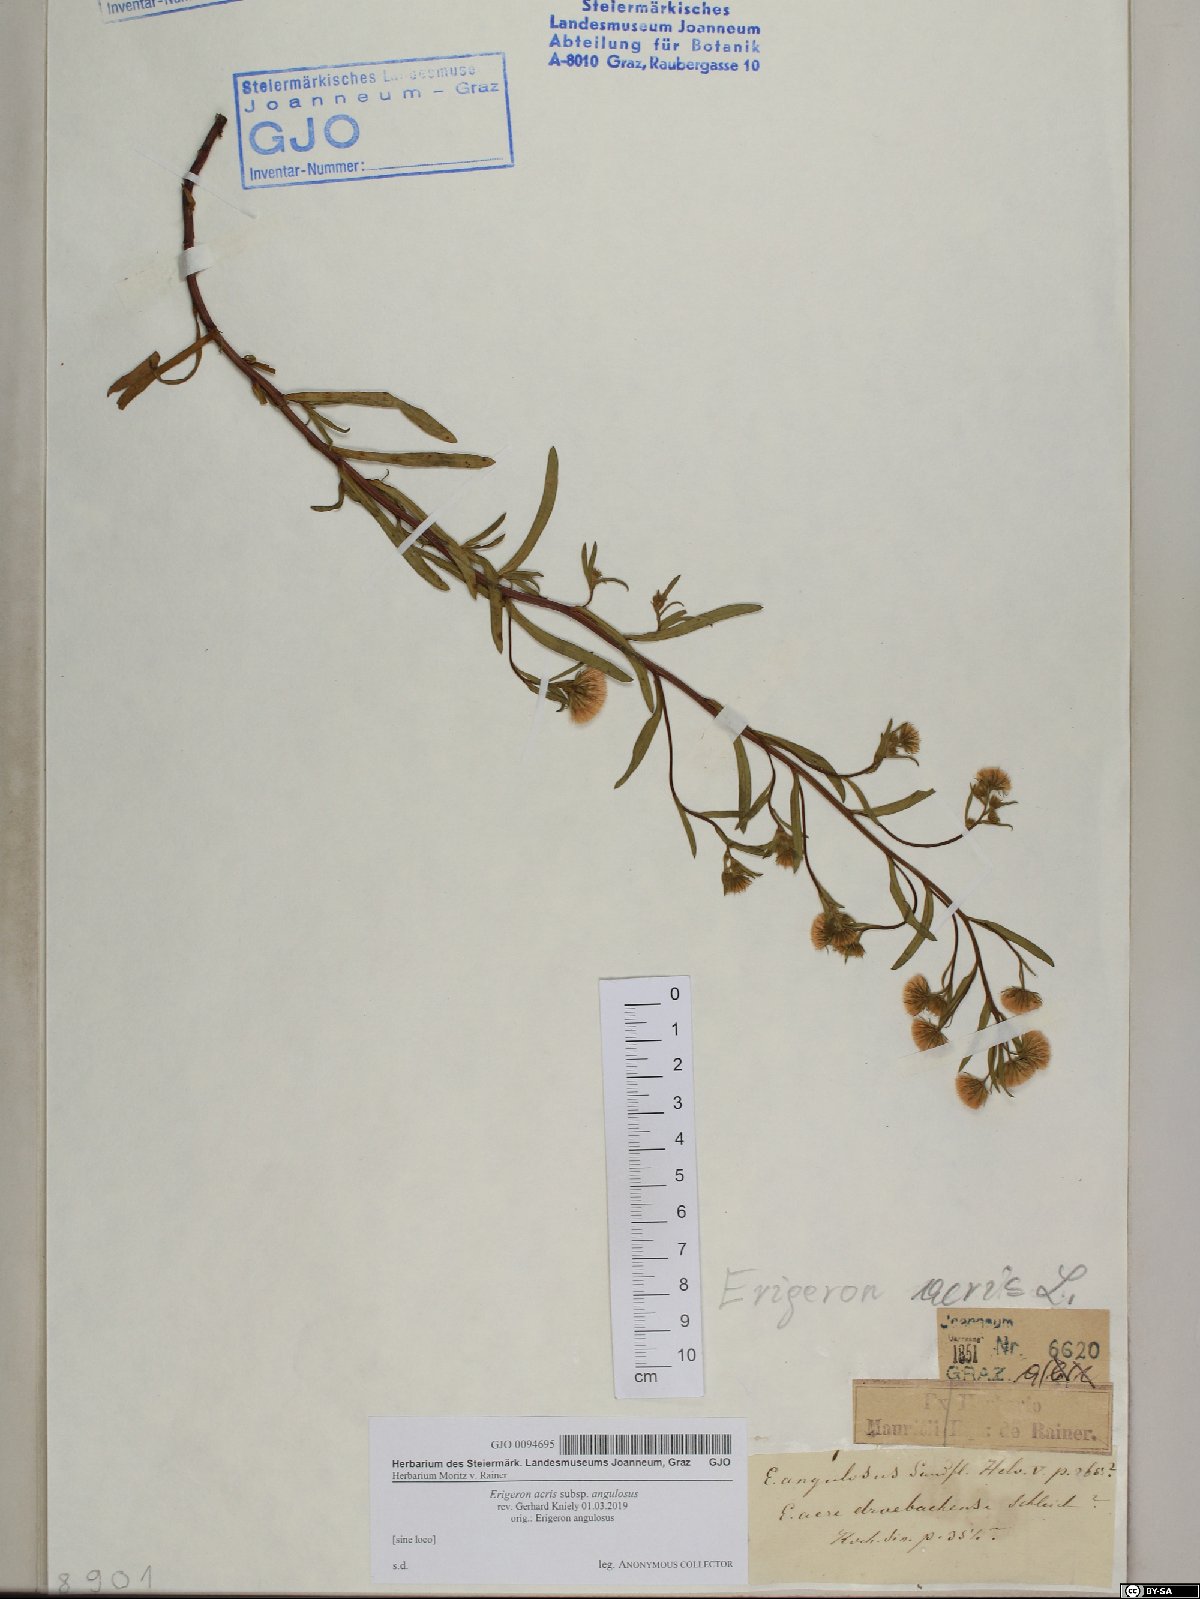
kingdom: Plantae
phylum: Tracheophyta
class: Magnoliopsida
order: Asterales
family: Asteraceae
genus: Erigeron
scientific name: Erigeron angulosus
